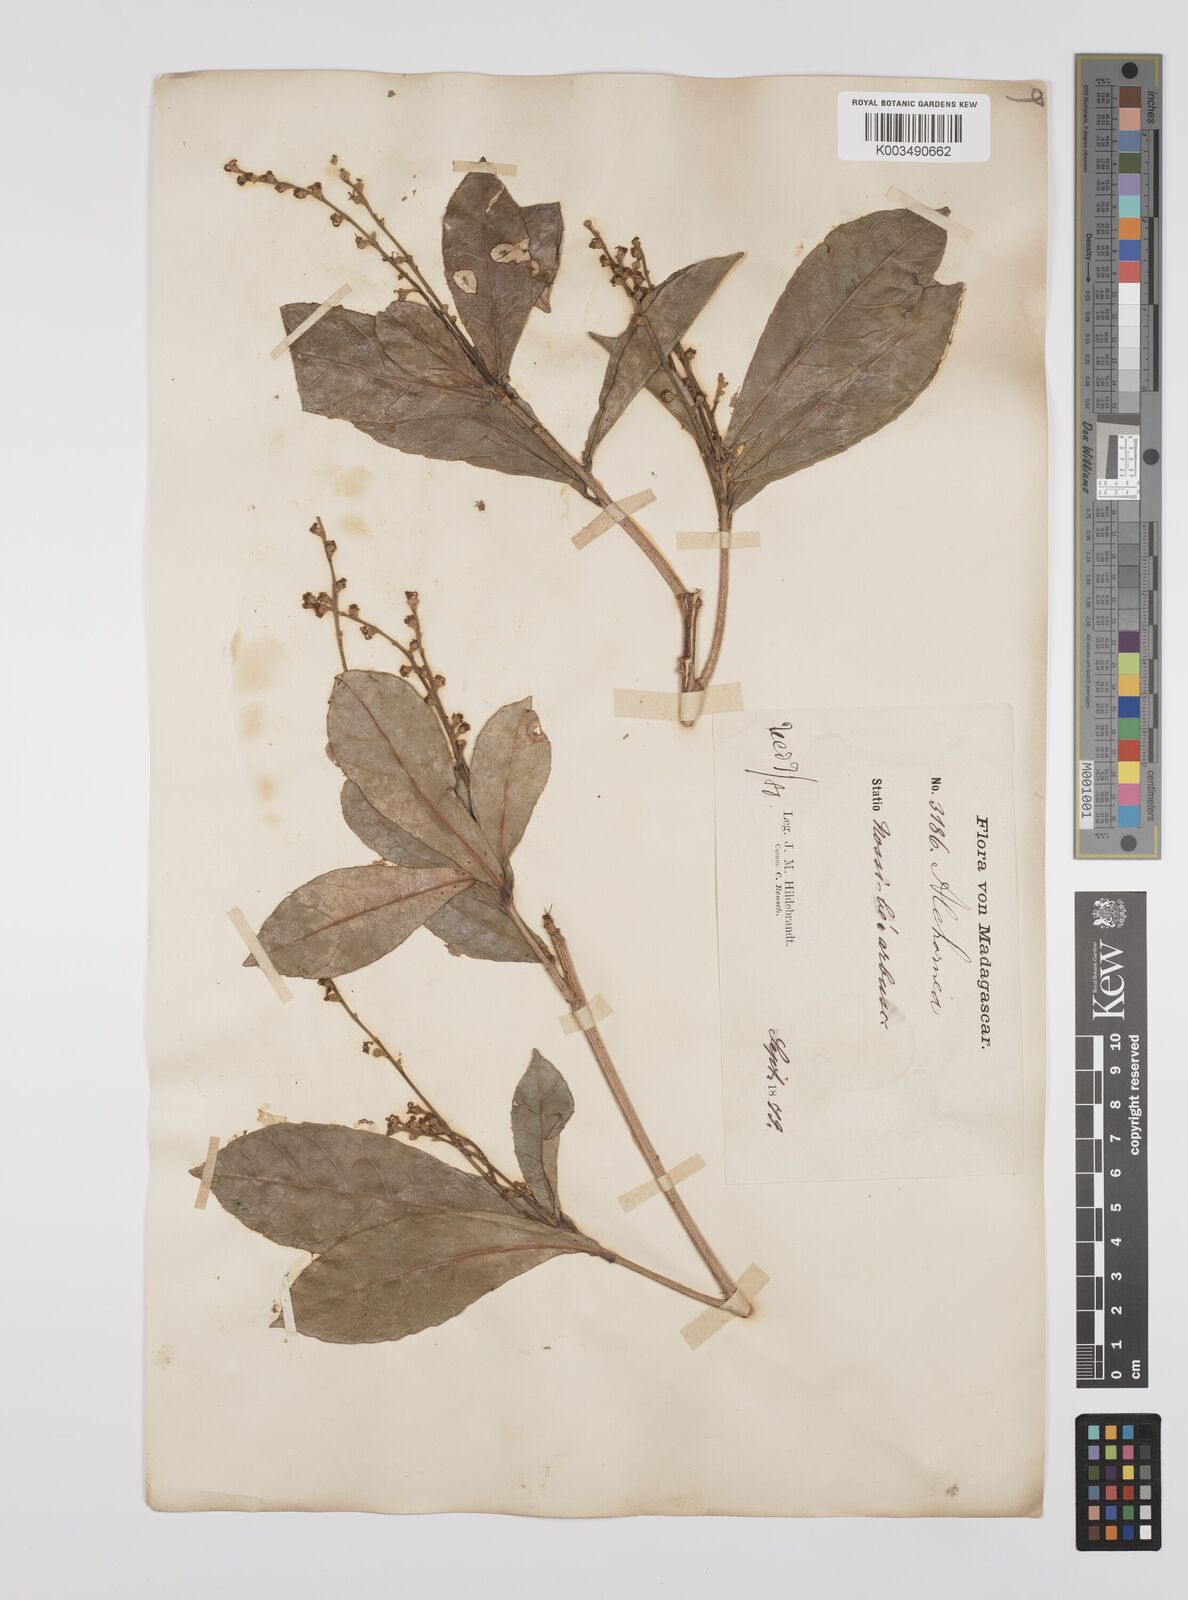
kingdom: Plantae
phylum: Tracheophyta
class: Magnoliopsida
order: Malpighiales
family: Euphorbiaceae
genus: Orfilea
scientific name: Orfilea multispicata
